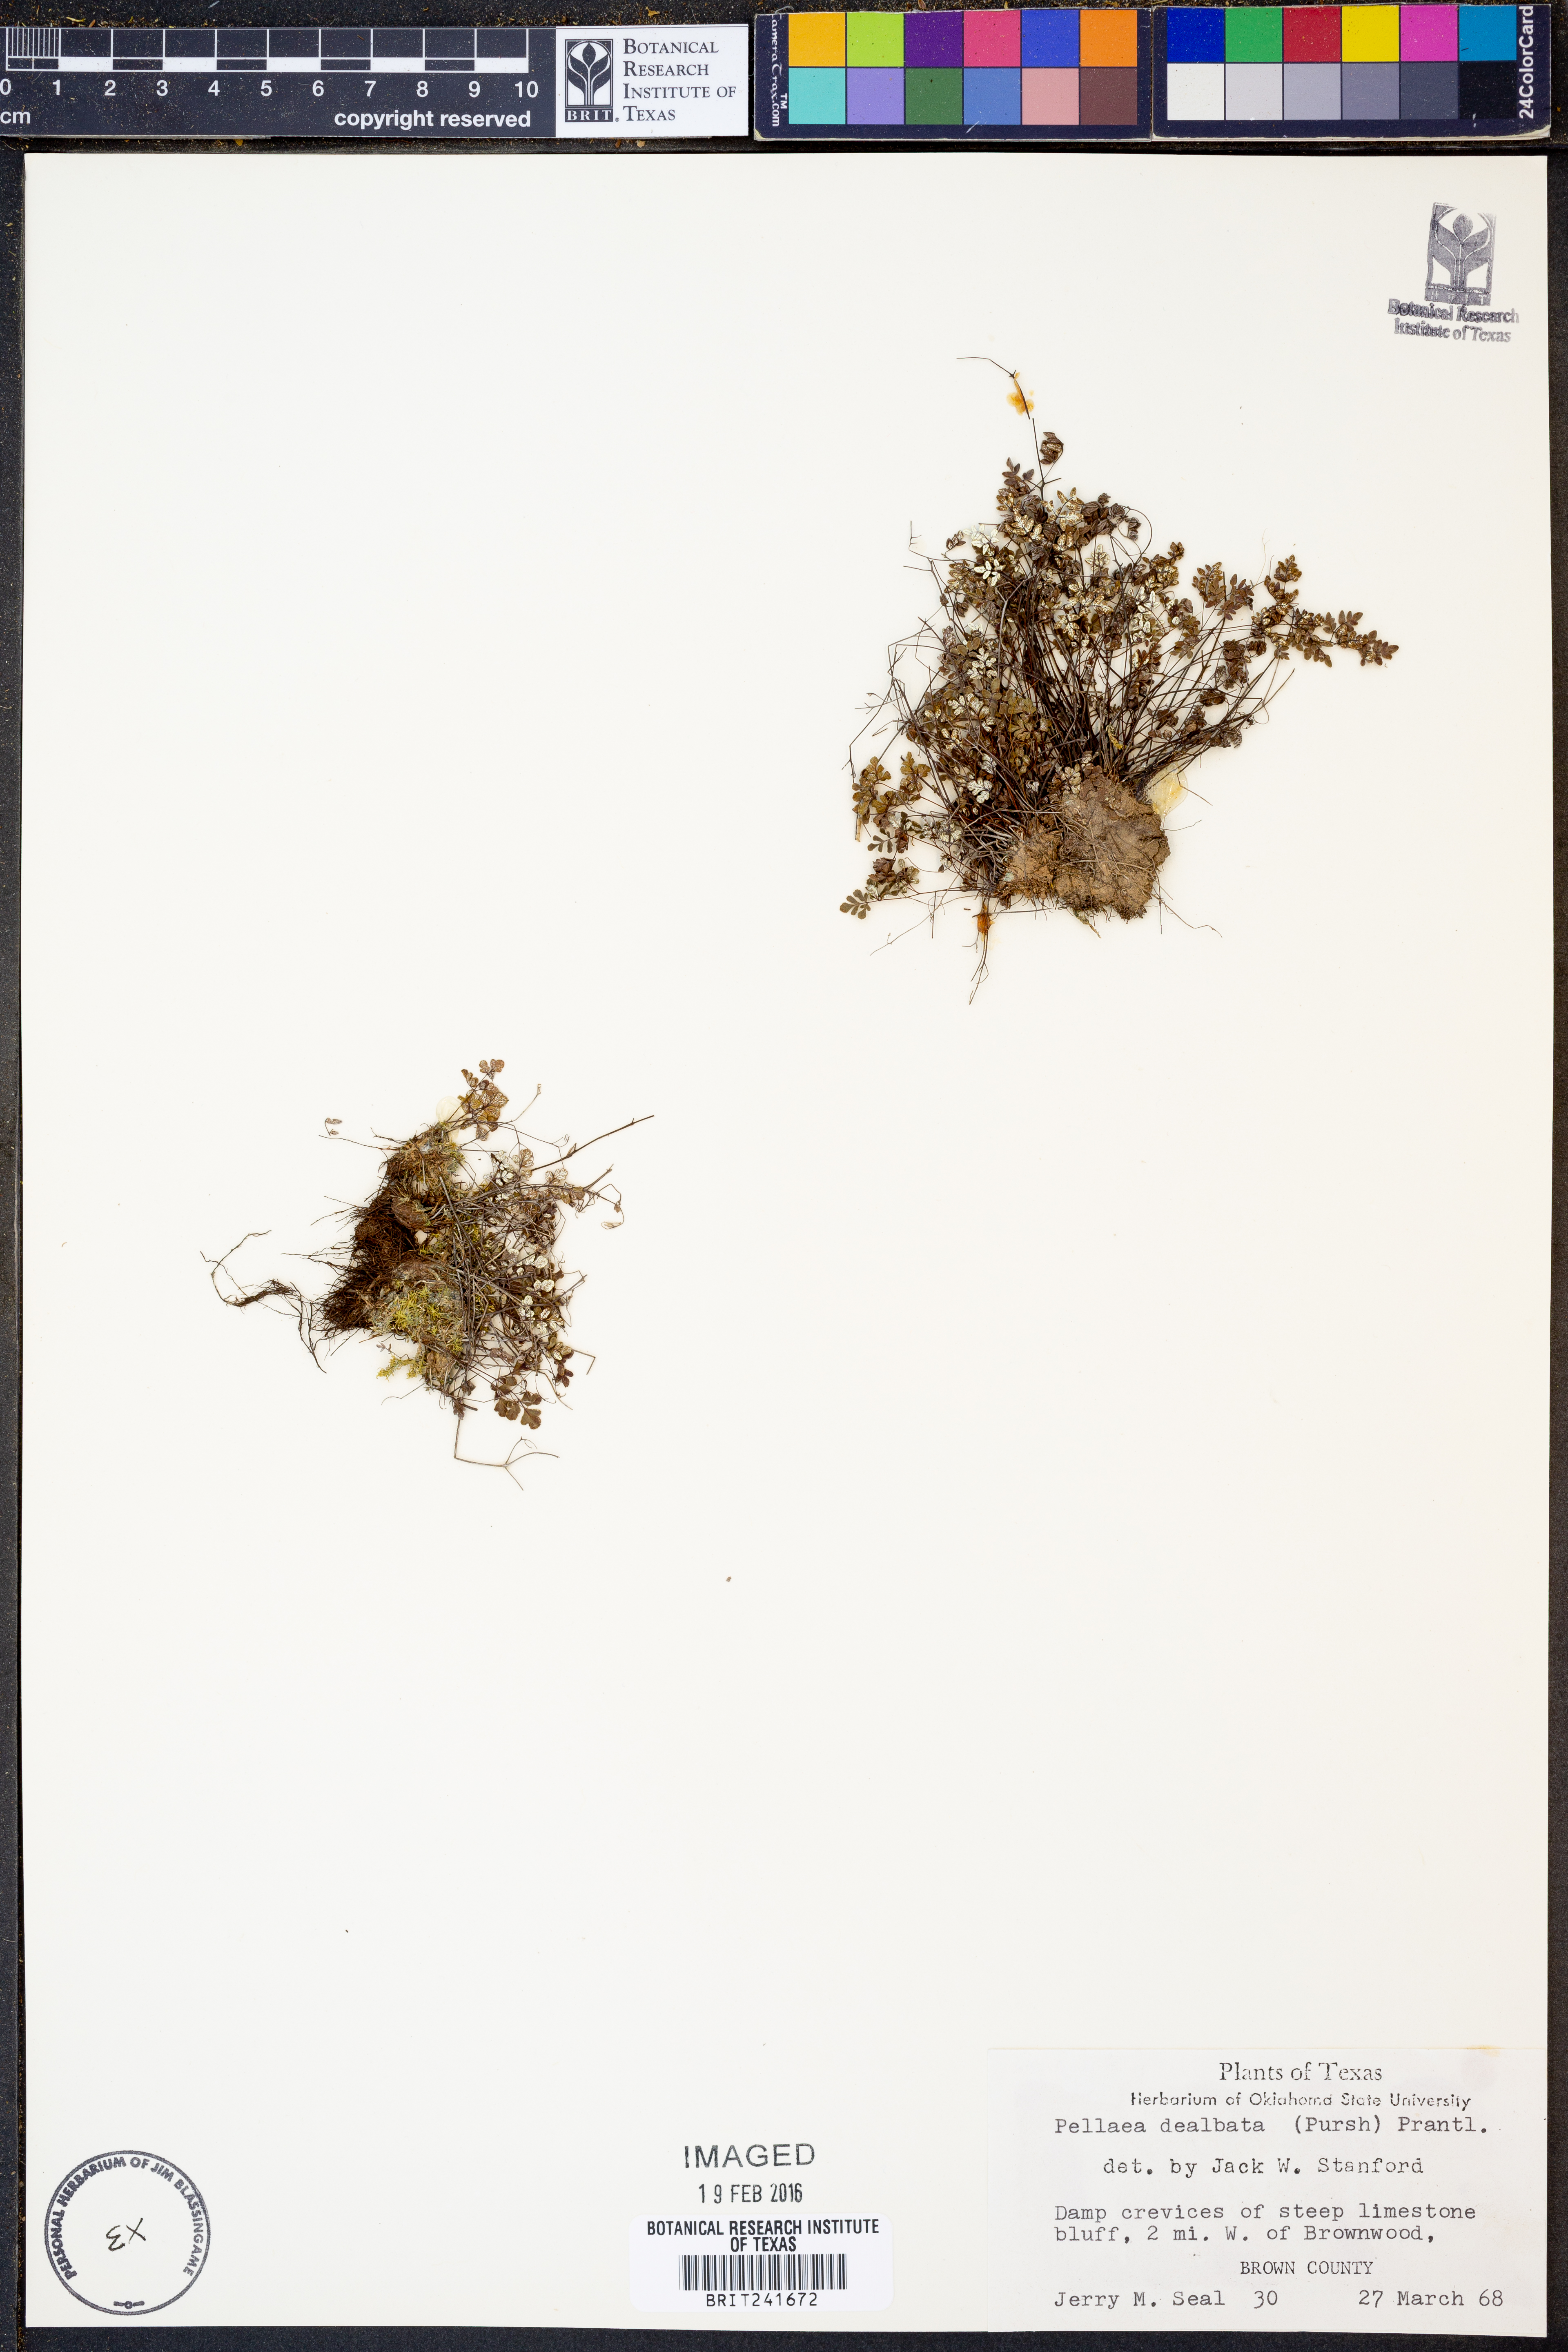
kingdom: Plantae
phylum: Tracheophyta
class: Polypodiopsida
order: Polypodiales
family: Pteridaceae
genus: Argyrochosma
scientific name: Argyrochosma dealbata
